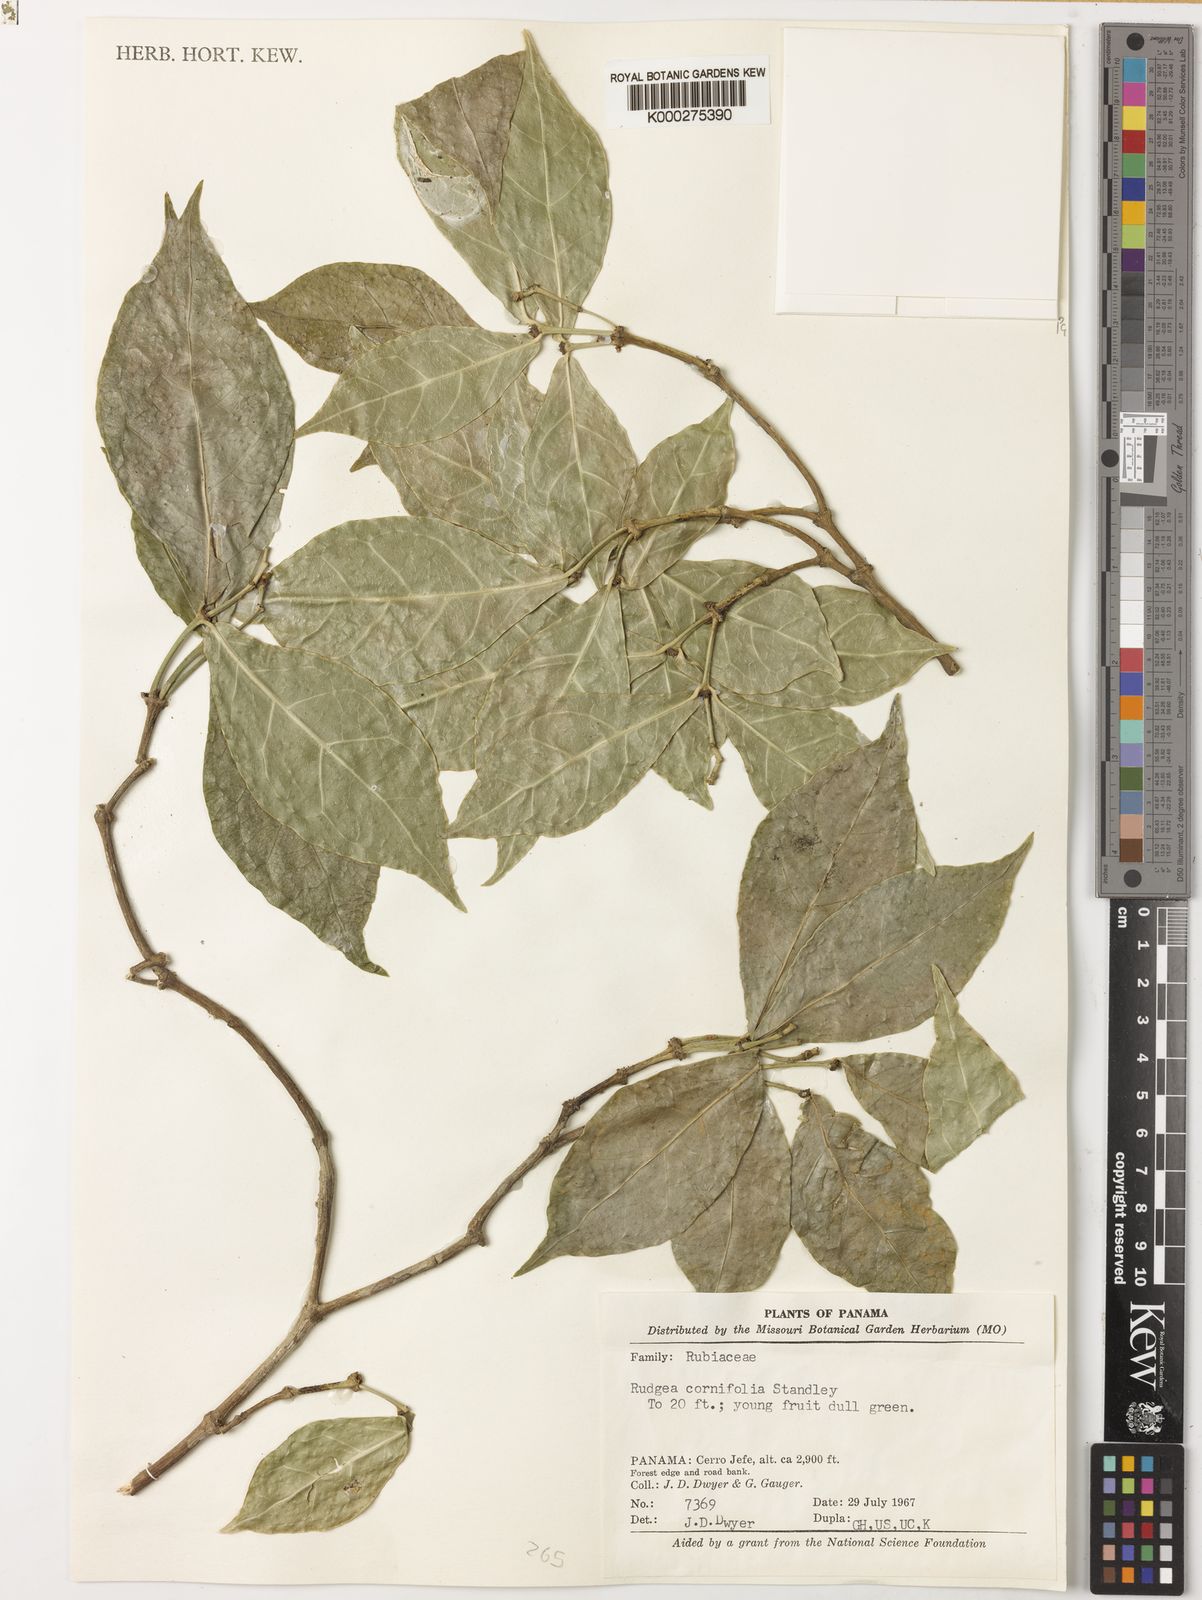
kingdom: Plantae
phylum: Tracheophyta
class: Magnoliopsida
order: Gentianales
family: Rubiaceae
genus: Rudgea
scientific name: Rudgea cornifolia
